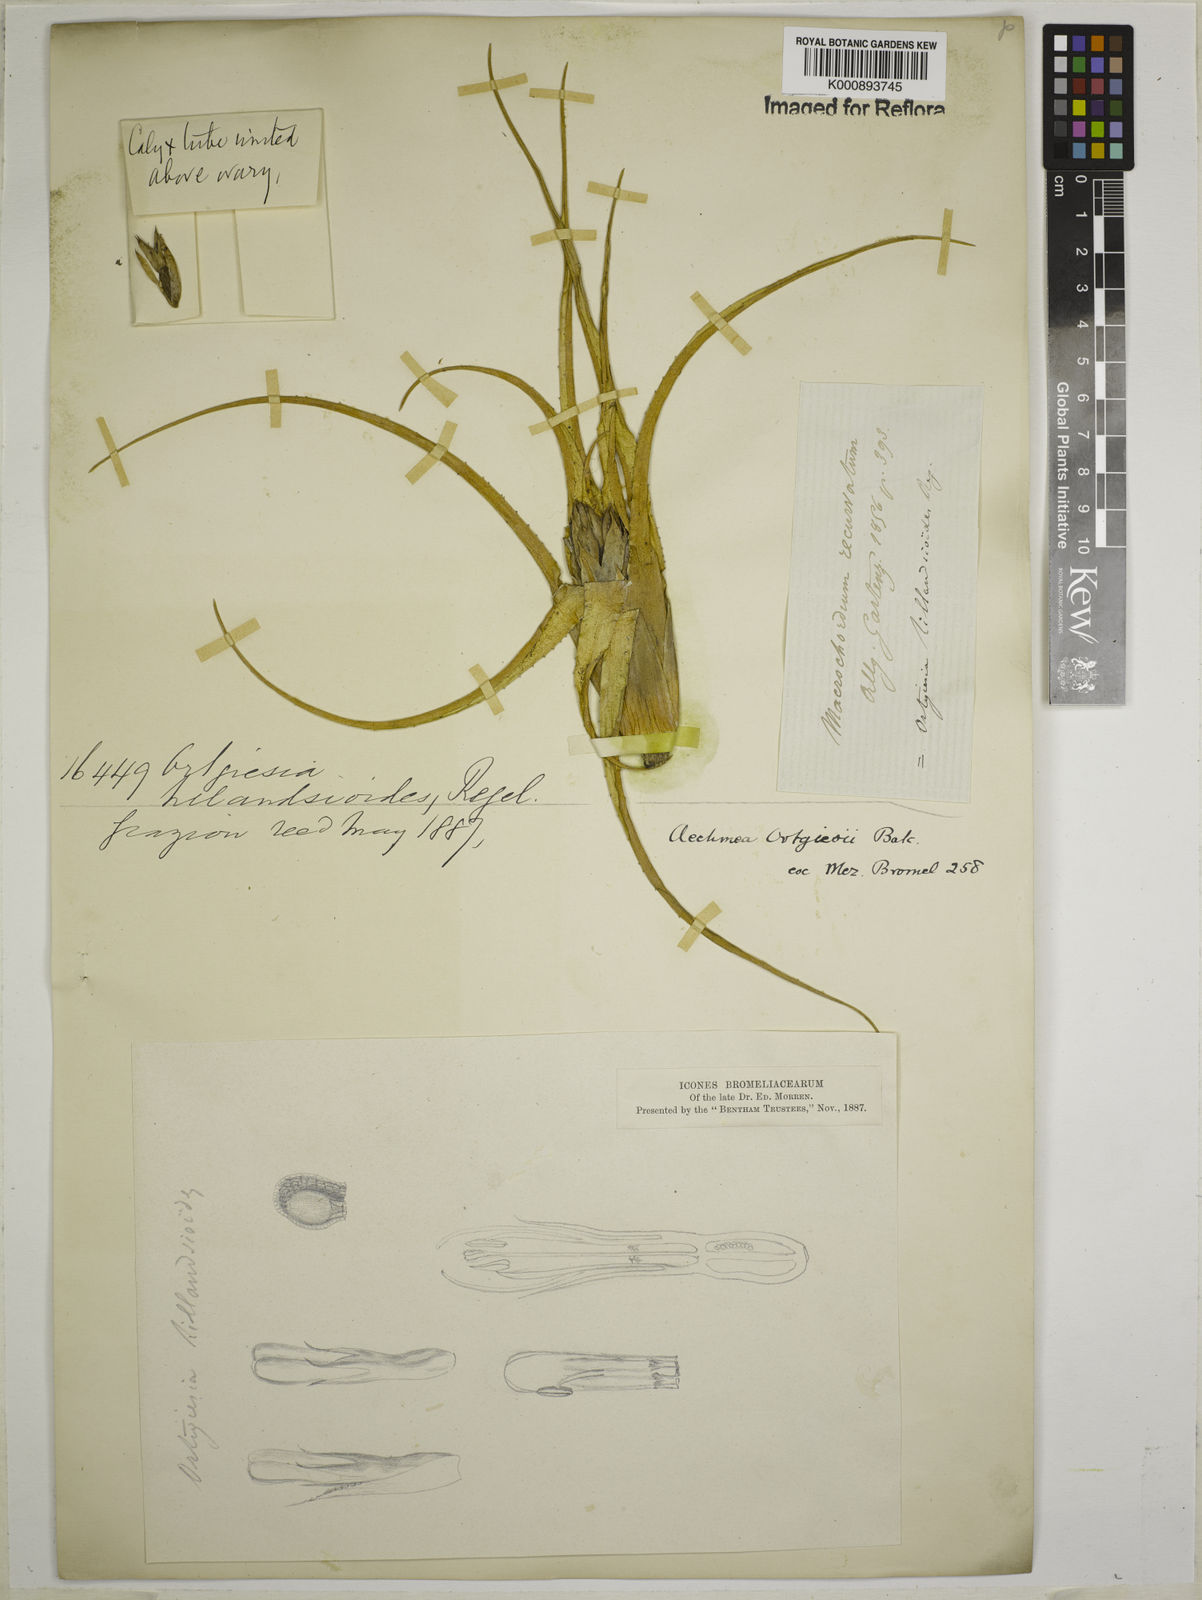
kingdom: Plantae
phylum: Tracheophyta
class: Liliopsida
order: Poales
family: Bromeliaceae
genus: Aechmea
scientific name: Aechmea recurvata
